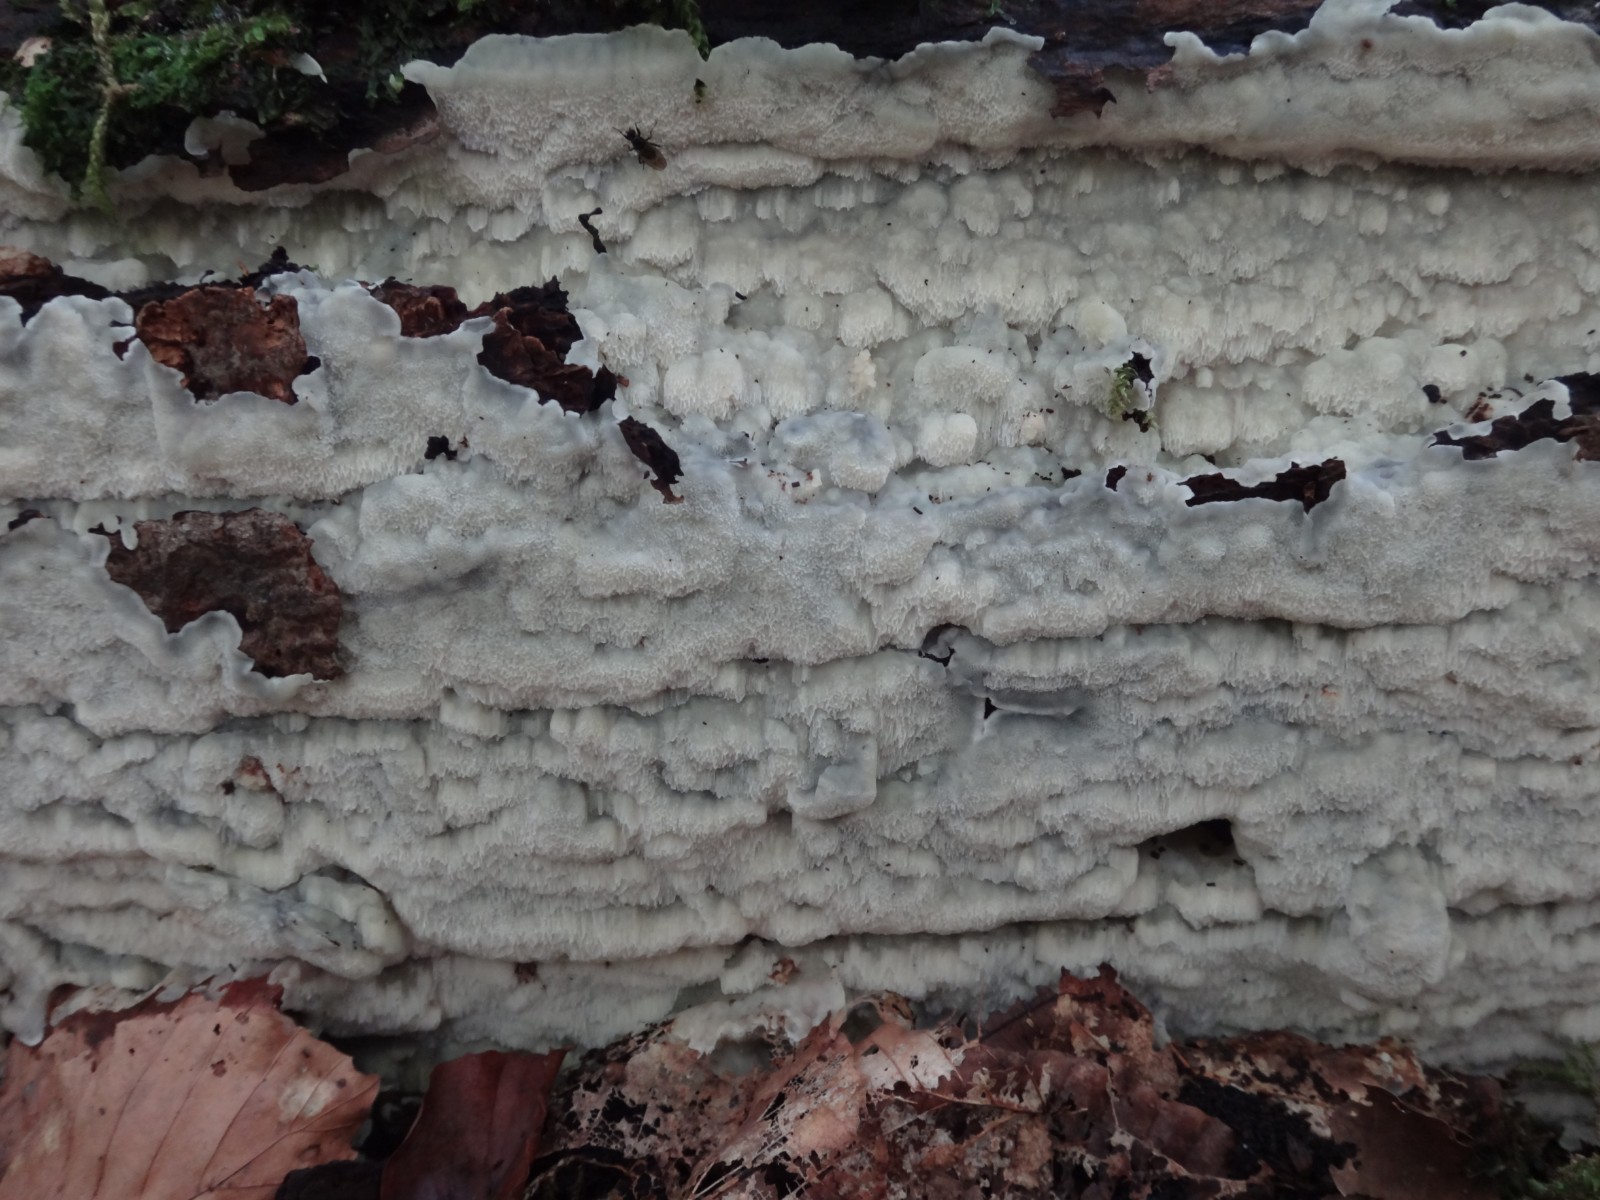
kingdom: Fungi
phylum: Basidiomycota
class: Agaricomycetes
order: Polyporales
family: Meruliaceae
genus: Physisporinus
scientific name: Physisporinus vitreus
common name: mastesvamp
